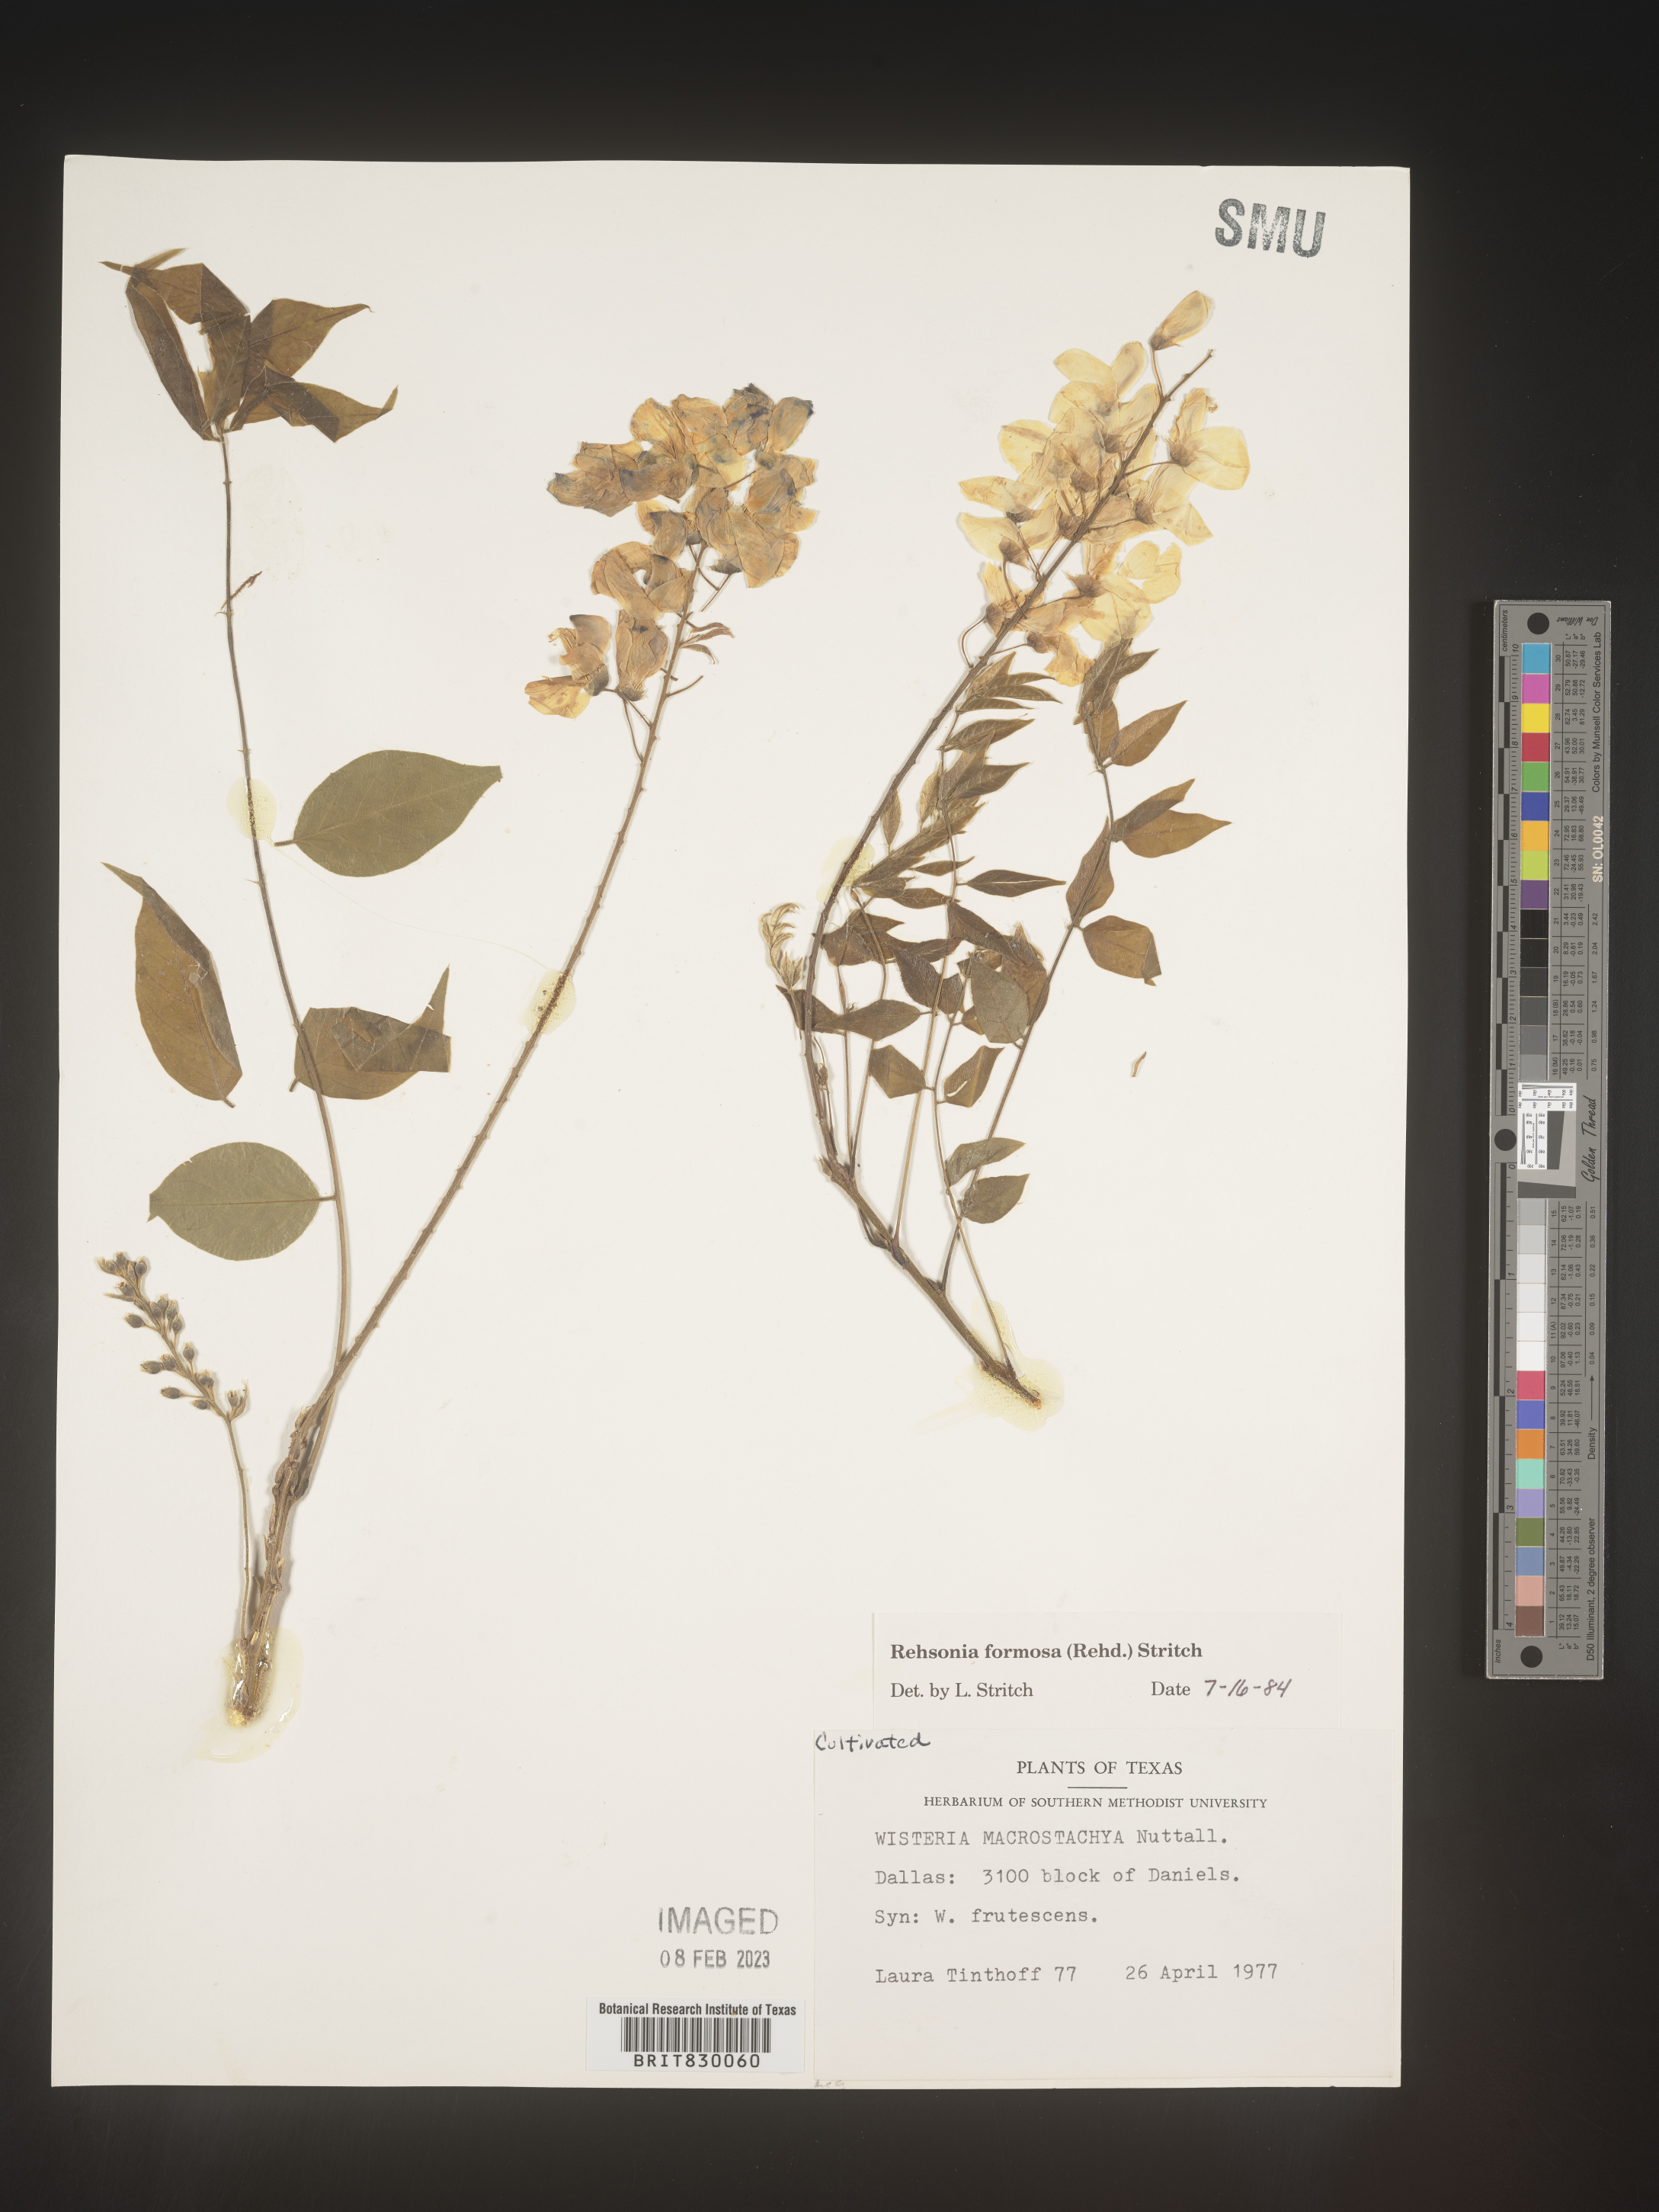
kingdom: Plantae
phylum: Tracheophyta
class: Magnoliopsida
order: Fabales
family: Fabaceae
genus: Wisteria
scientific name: Wisteria
